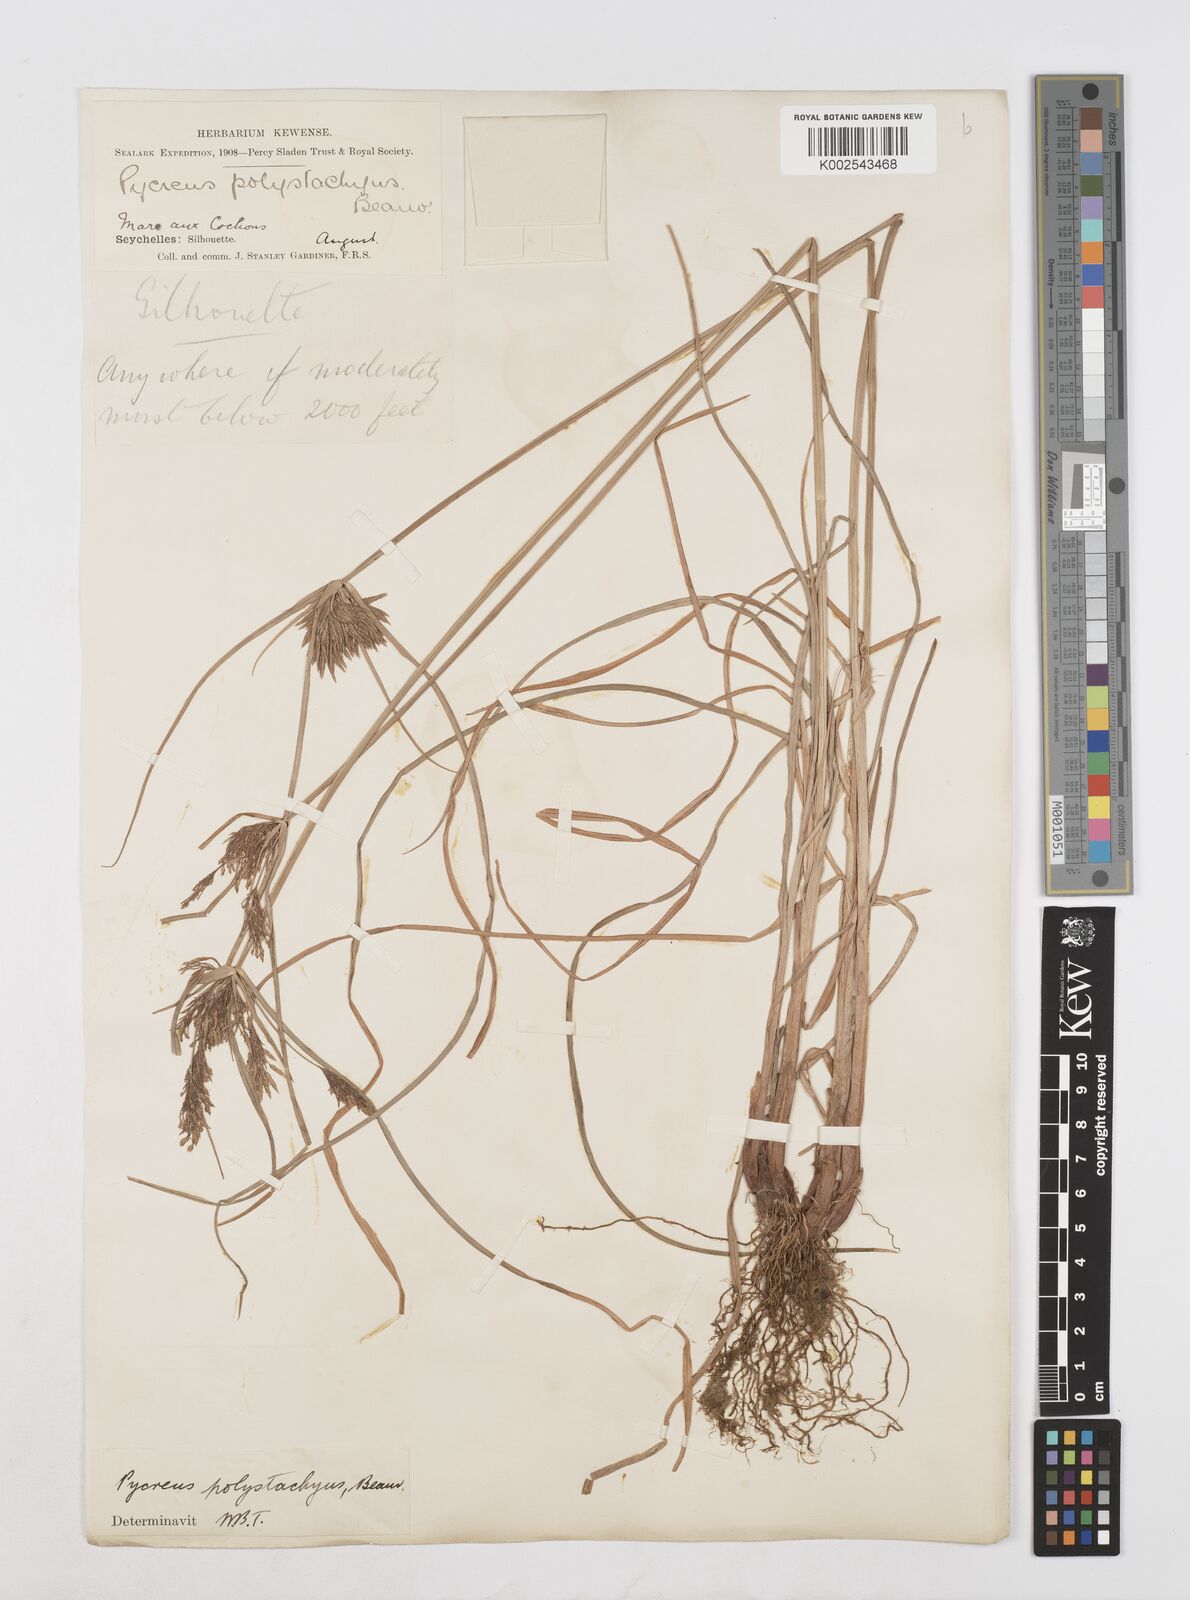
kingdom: Plantae
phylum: Tracheophyta
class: Liliopsida
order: Poales
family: Cyperaceae
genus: Cyperus
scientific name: Cyperus polystachyos
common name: Bunchy flat sedge
